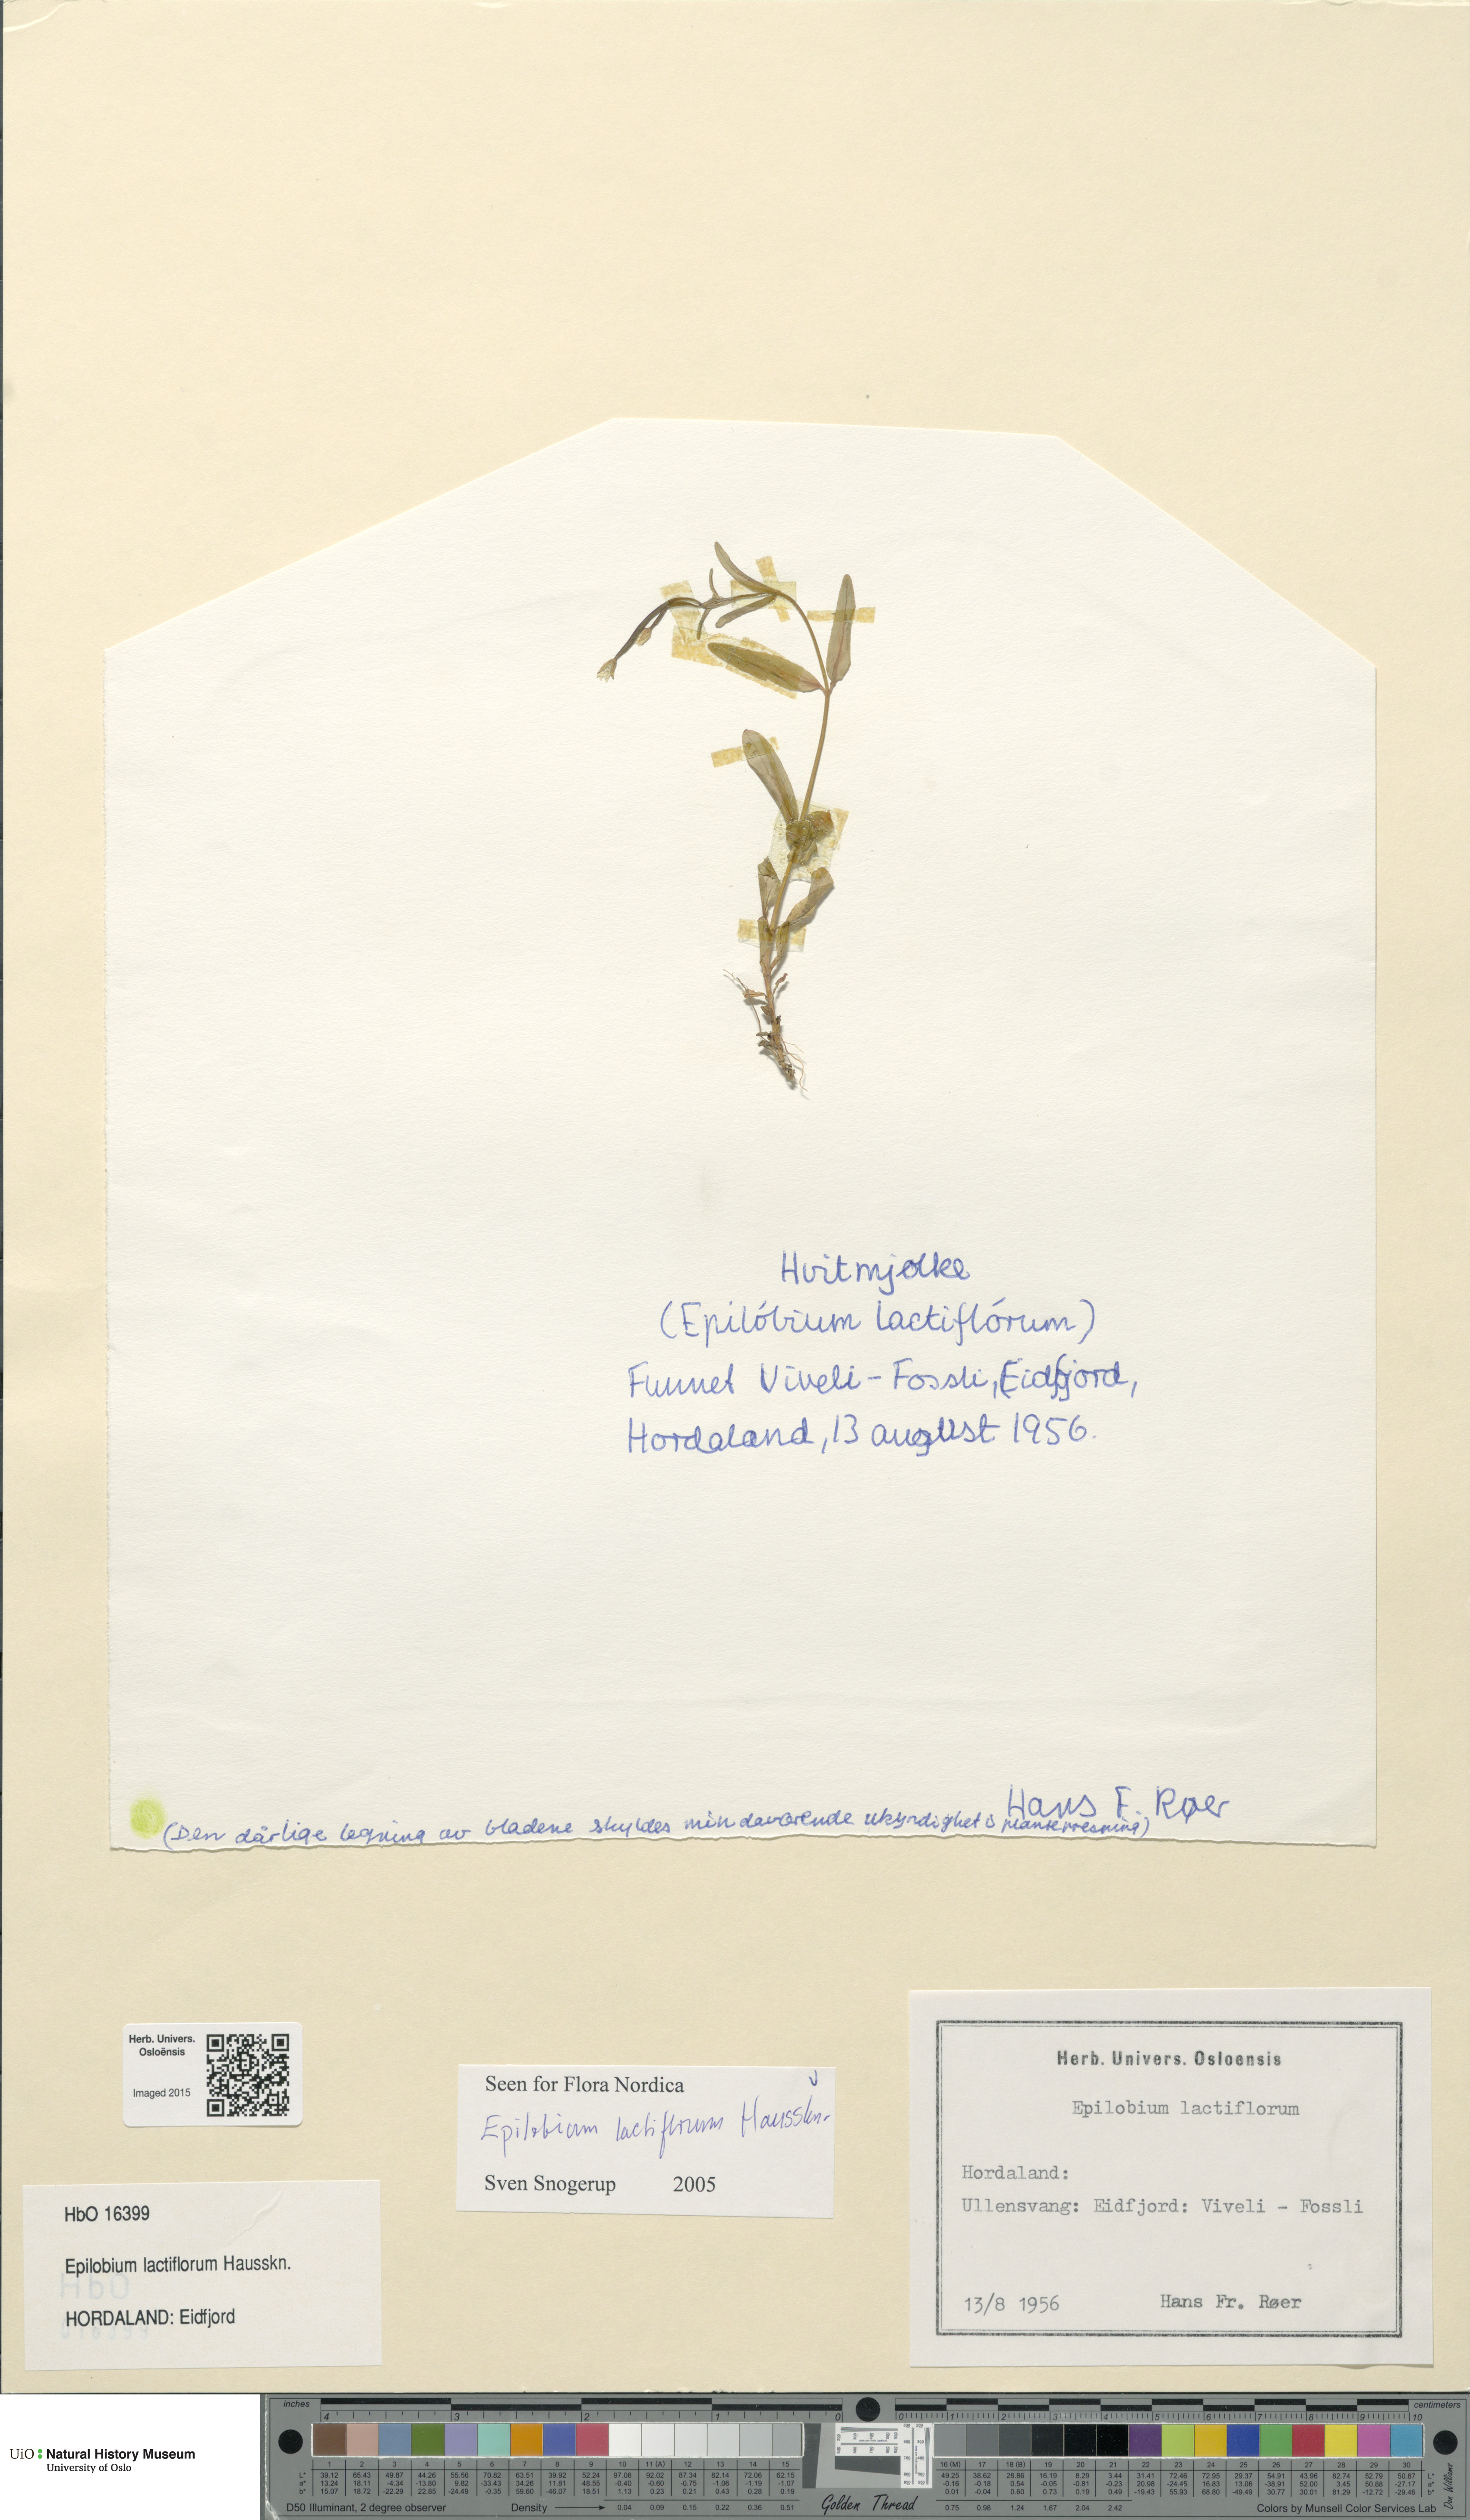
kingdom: Plantae
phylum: Tracheophyta
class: Magnoliopsida
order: Myrtales
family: Onagraceae
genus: Epilobium
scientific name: Epilobium lactiflorum
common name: Milkflower willowherb
